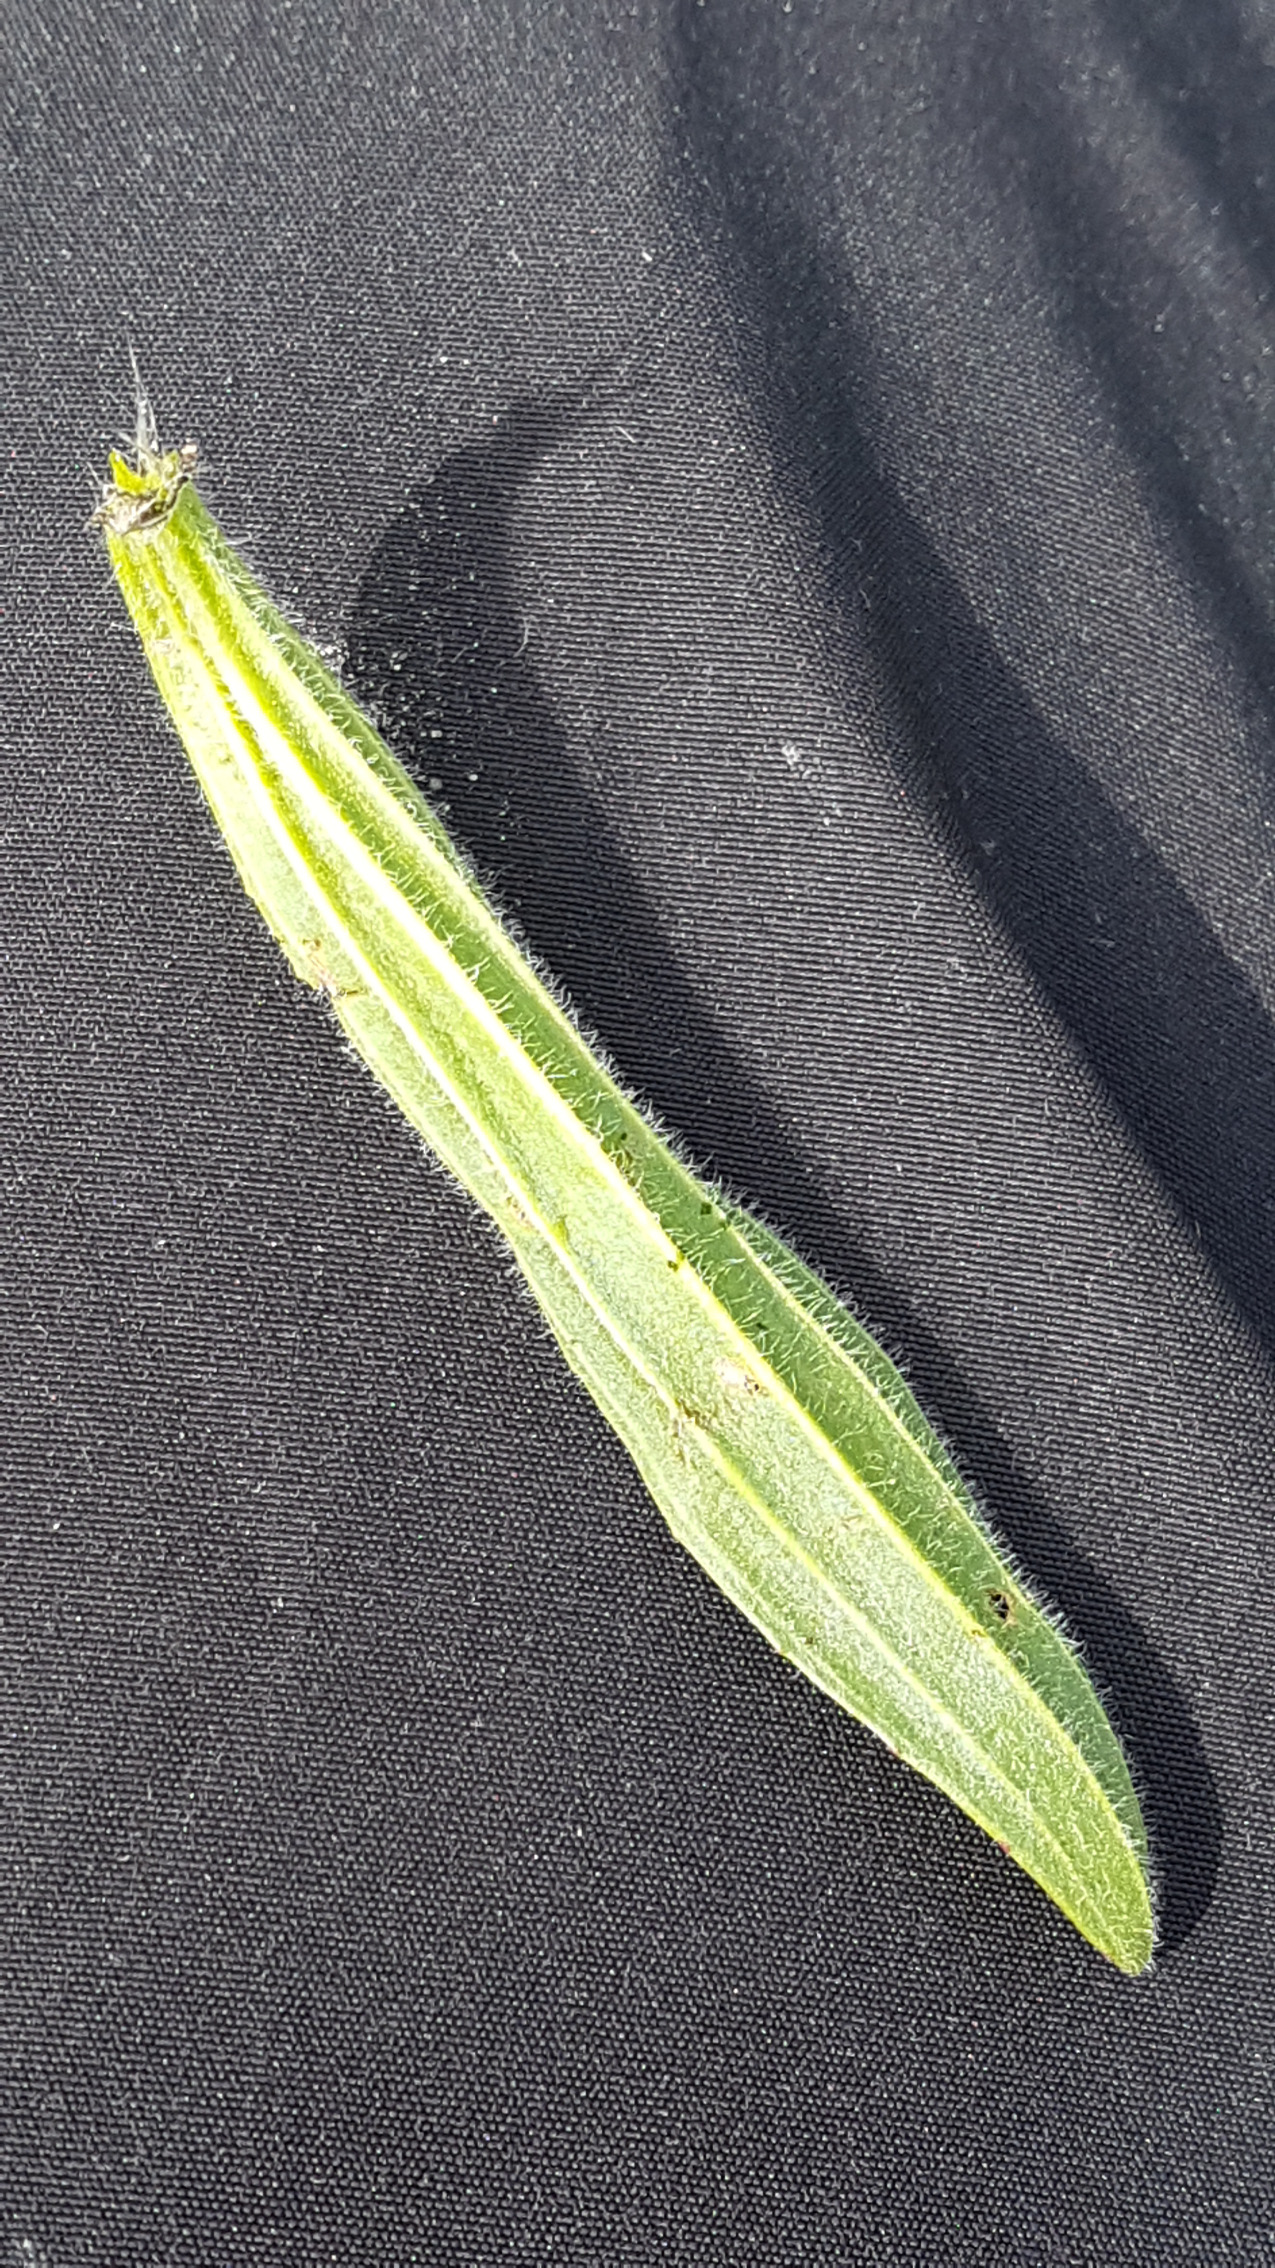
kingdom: Plantae
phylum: Tracheophyta
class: Magnoliopsida
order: Lamiales
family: Plantaginaceae
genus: Plantago
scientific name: Plantago lanceolata
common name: Lancet-vejbred
